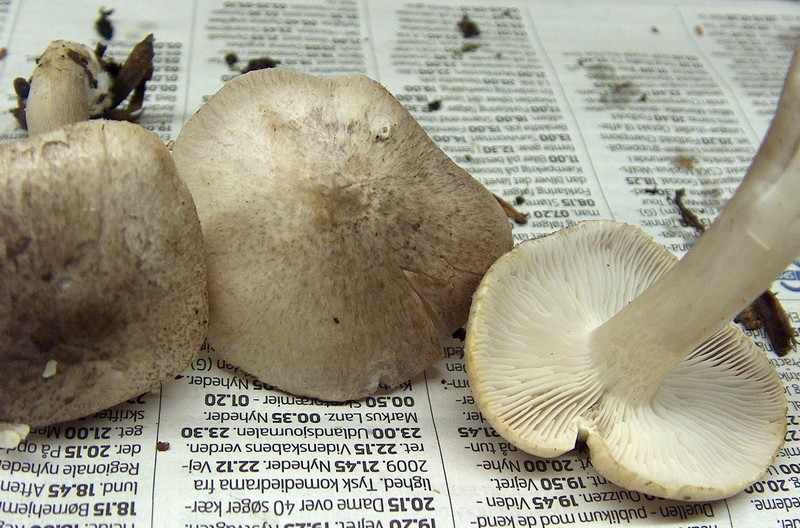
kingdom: Fungi
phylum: Basidiomycota
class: Agaricomycetes
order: Agaricales
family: Tricholomataceae
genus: Tricholoma
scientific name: Tricholoma scalpturatum
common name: gulplettet ridderhat
